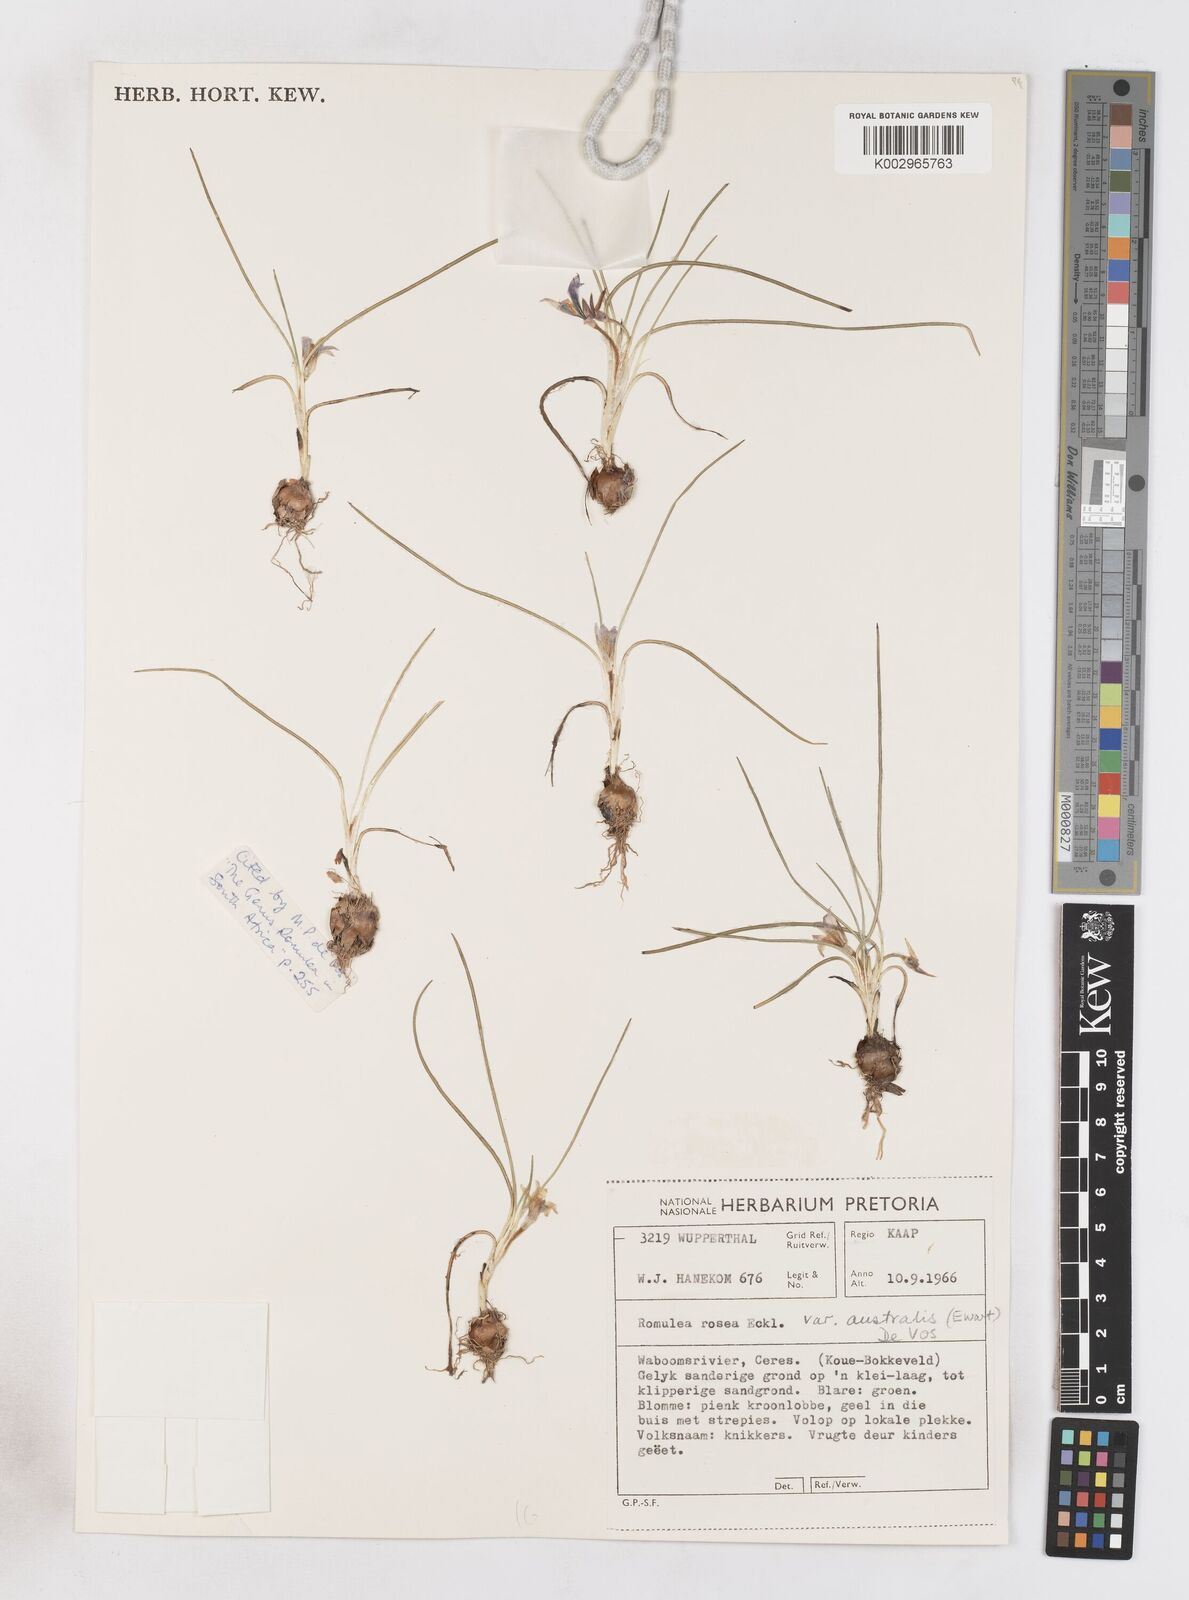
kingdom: Plantae
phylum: Tracheophyta
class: Liliopsida
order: Asparagales
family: Iridaceae
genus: Romulea
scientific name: Romulea rosea
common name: Oniongrass
